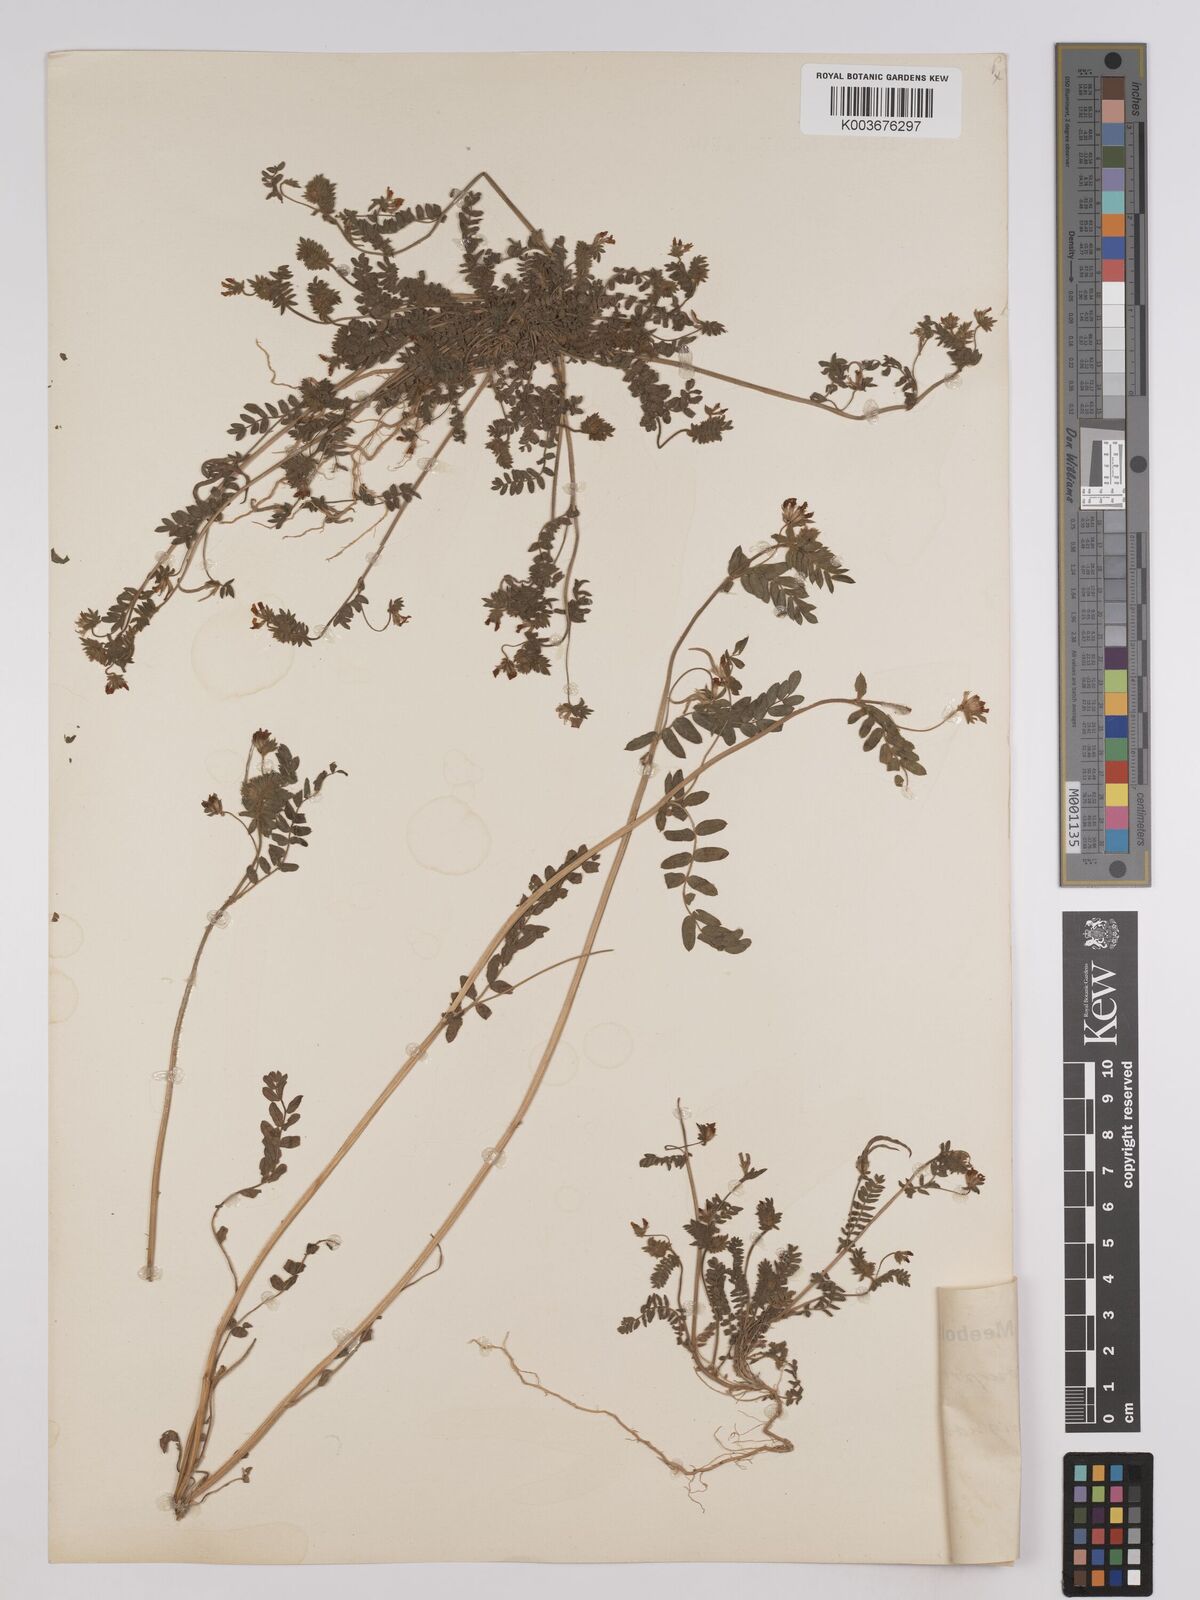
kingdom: Plantae
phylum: Tracheophyta
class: Magnoliopsida
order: Fabales
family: Fabaceae
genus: Ornithopus
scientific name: Ornithopus compressus
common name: Yellow serradella
